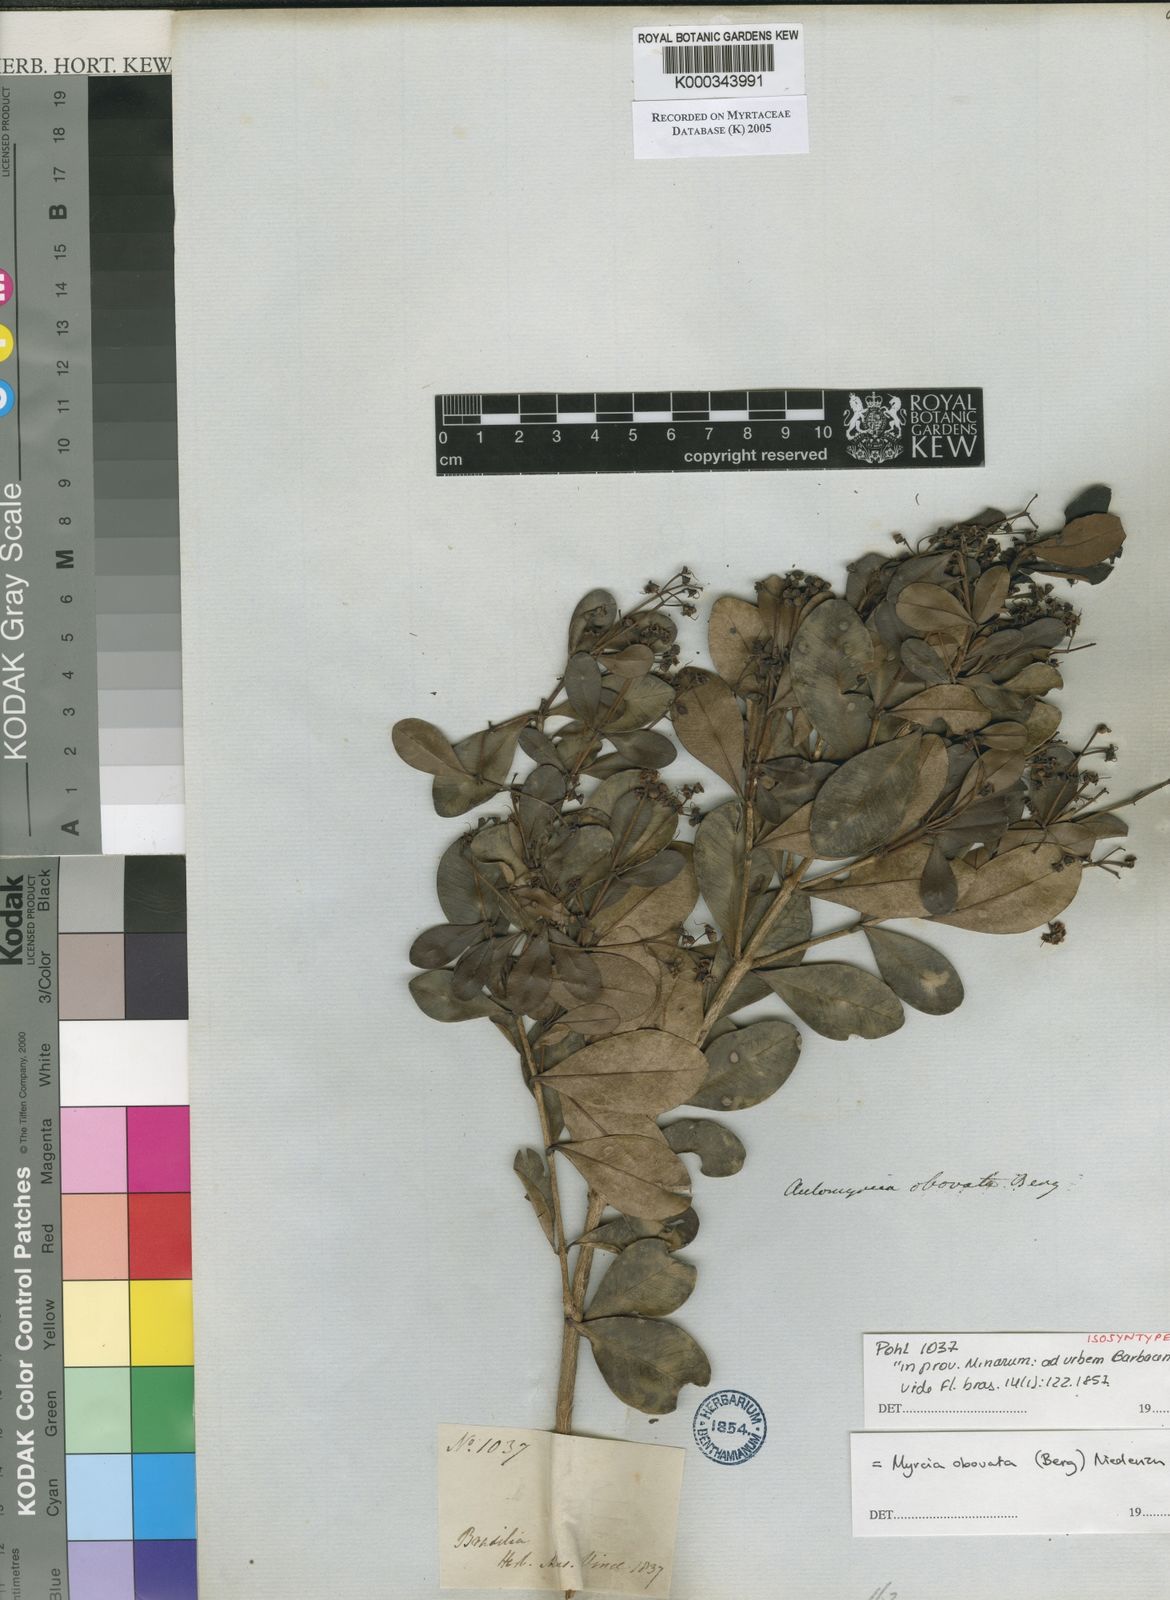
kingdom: Plantae
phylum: Tracheophyta
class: Magnoliopsida
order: Myrtales
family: Myrtaceae
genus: Myrcia
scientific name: Myrcia obovata
